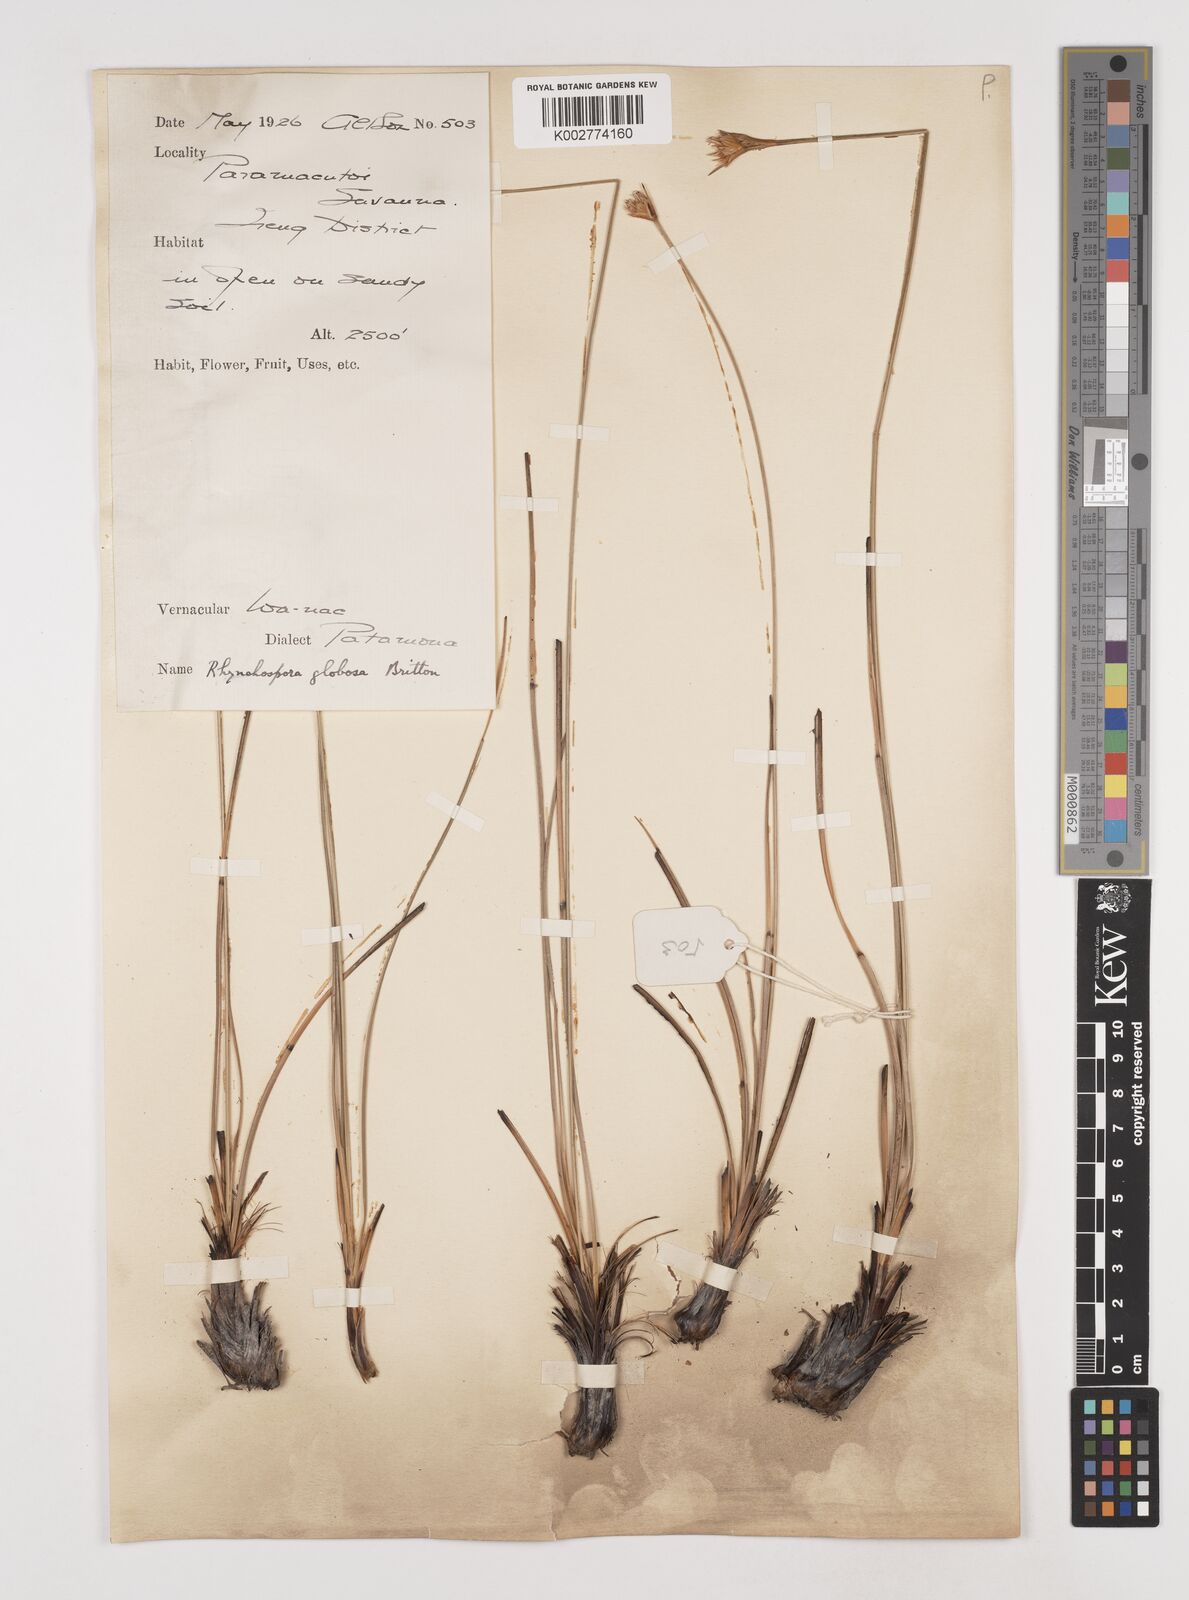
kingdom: Plantae
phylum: Tracheophyta
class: Liliopsida
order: Poales
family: Cyperaceae
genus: Rhynchospora
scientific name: Rhynchospora globosa
